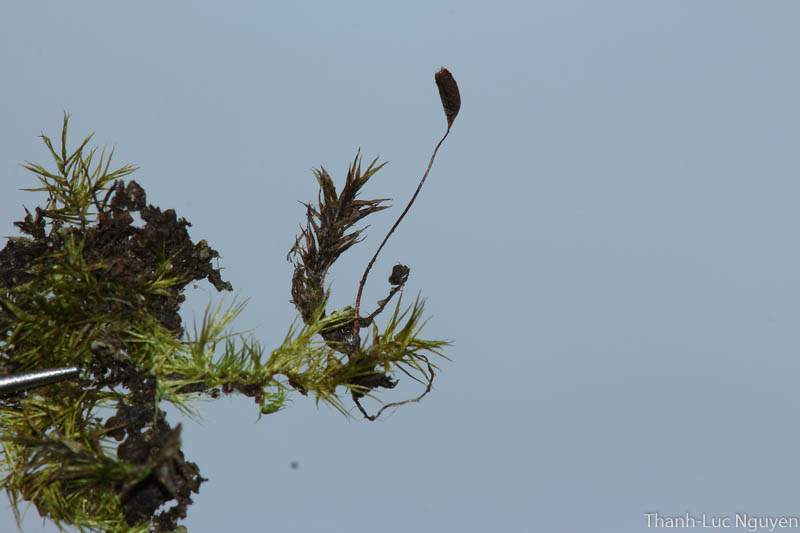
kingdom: Plantae
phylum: Bryophyta
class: Bryopsida
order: Hypnales
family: Sematophyllaceae
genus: Acroporium
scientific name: Acroporium
